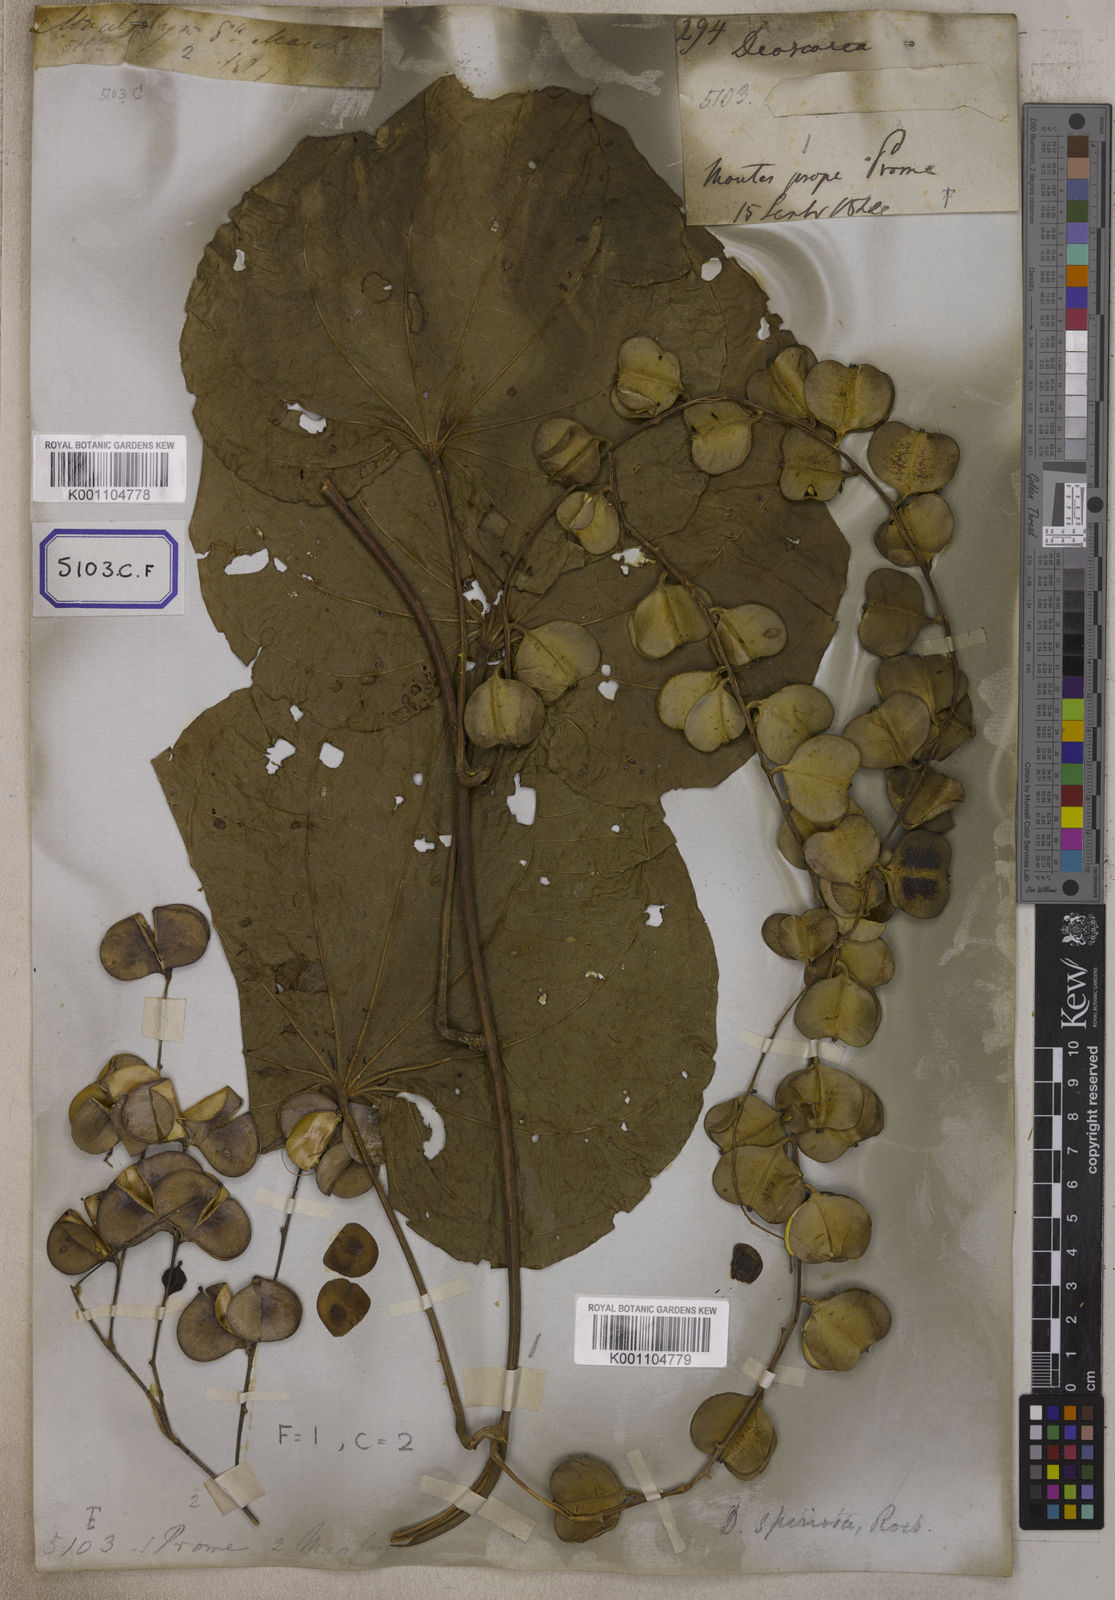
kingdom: Plantae
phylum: Tracheophyta
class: Liliopsida
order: Dioscoreales
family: Dioscoreaceae
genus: Dioscorea
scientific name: Dioscorea
